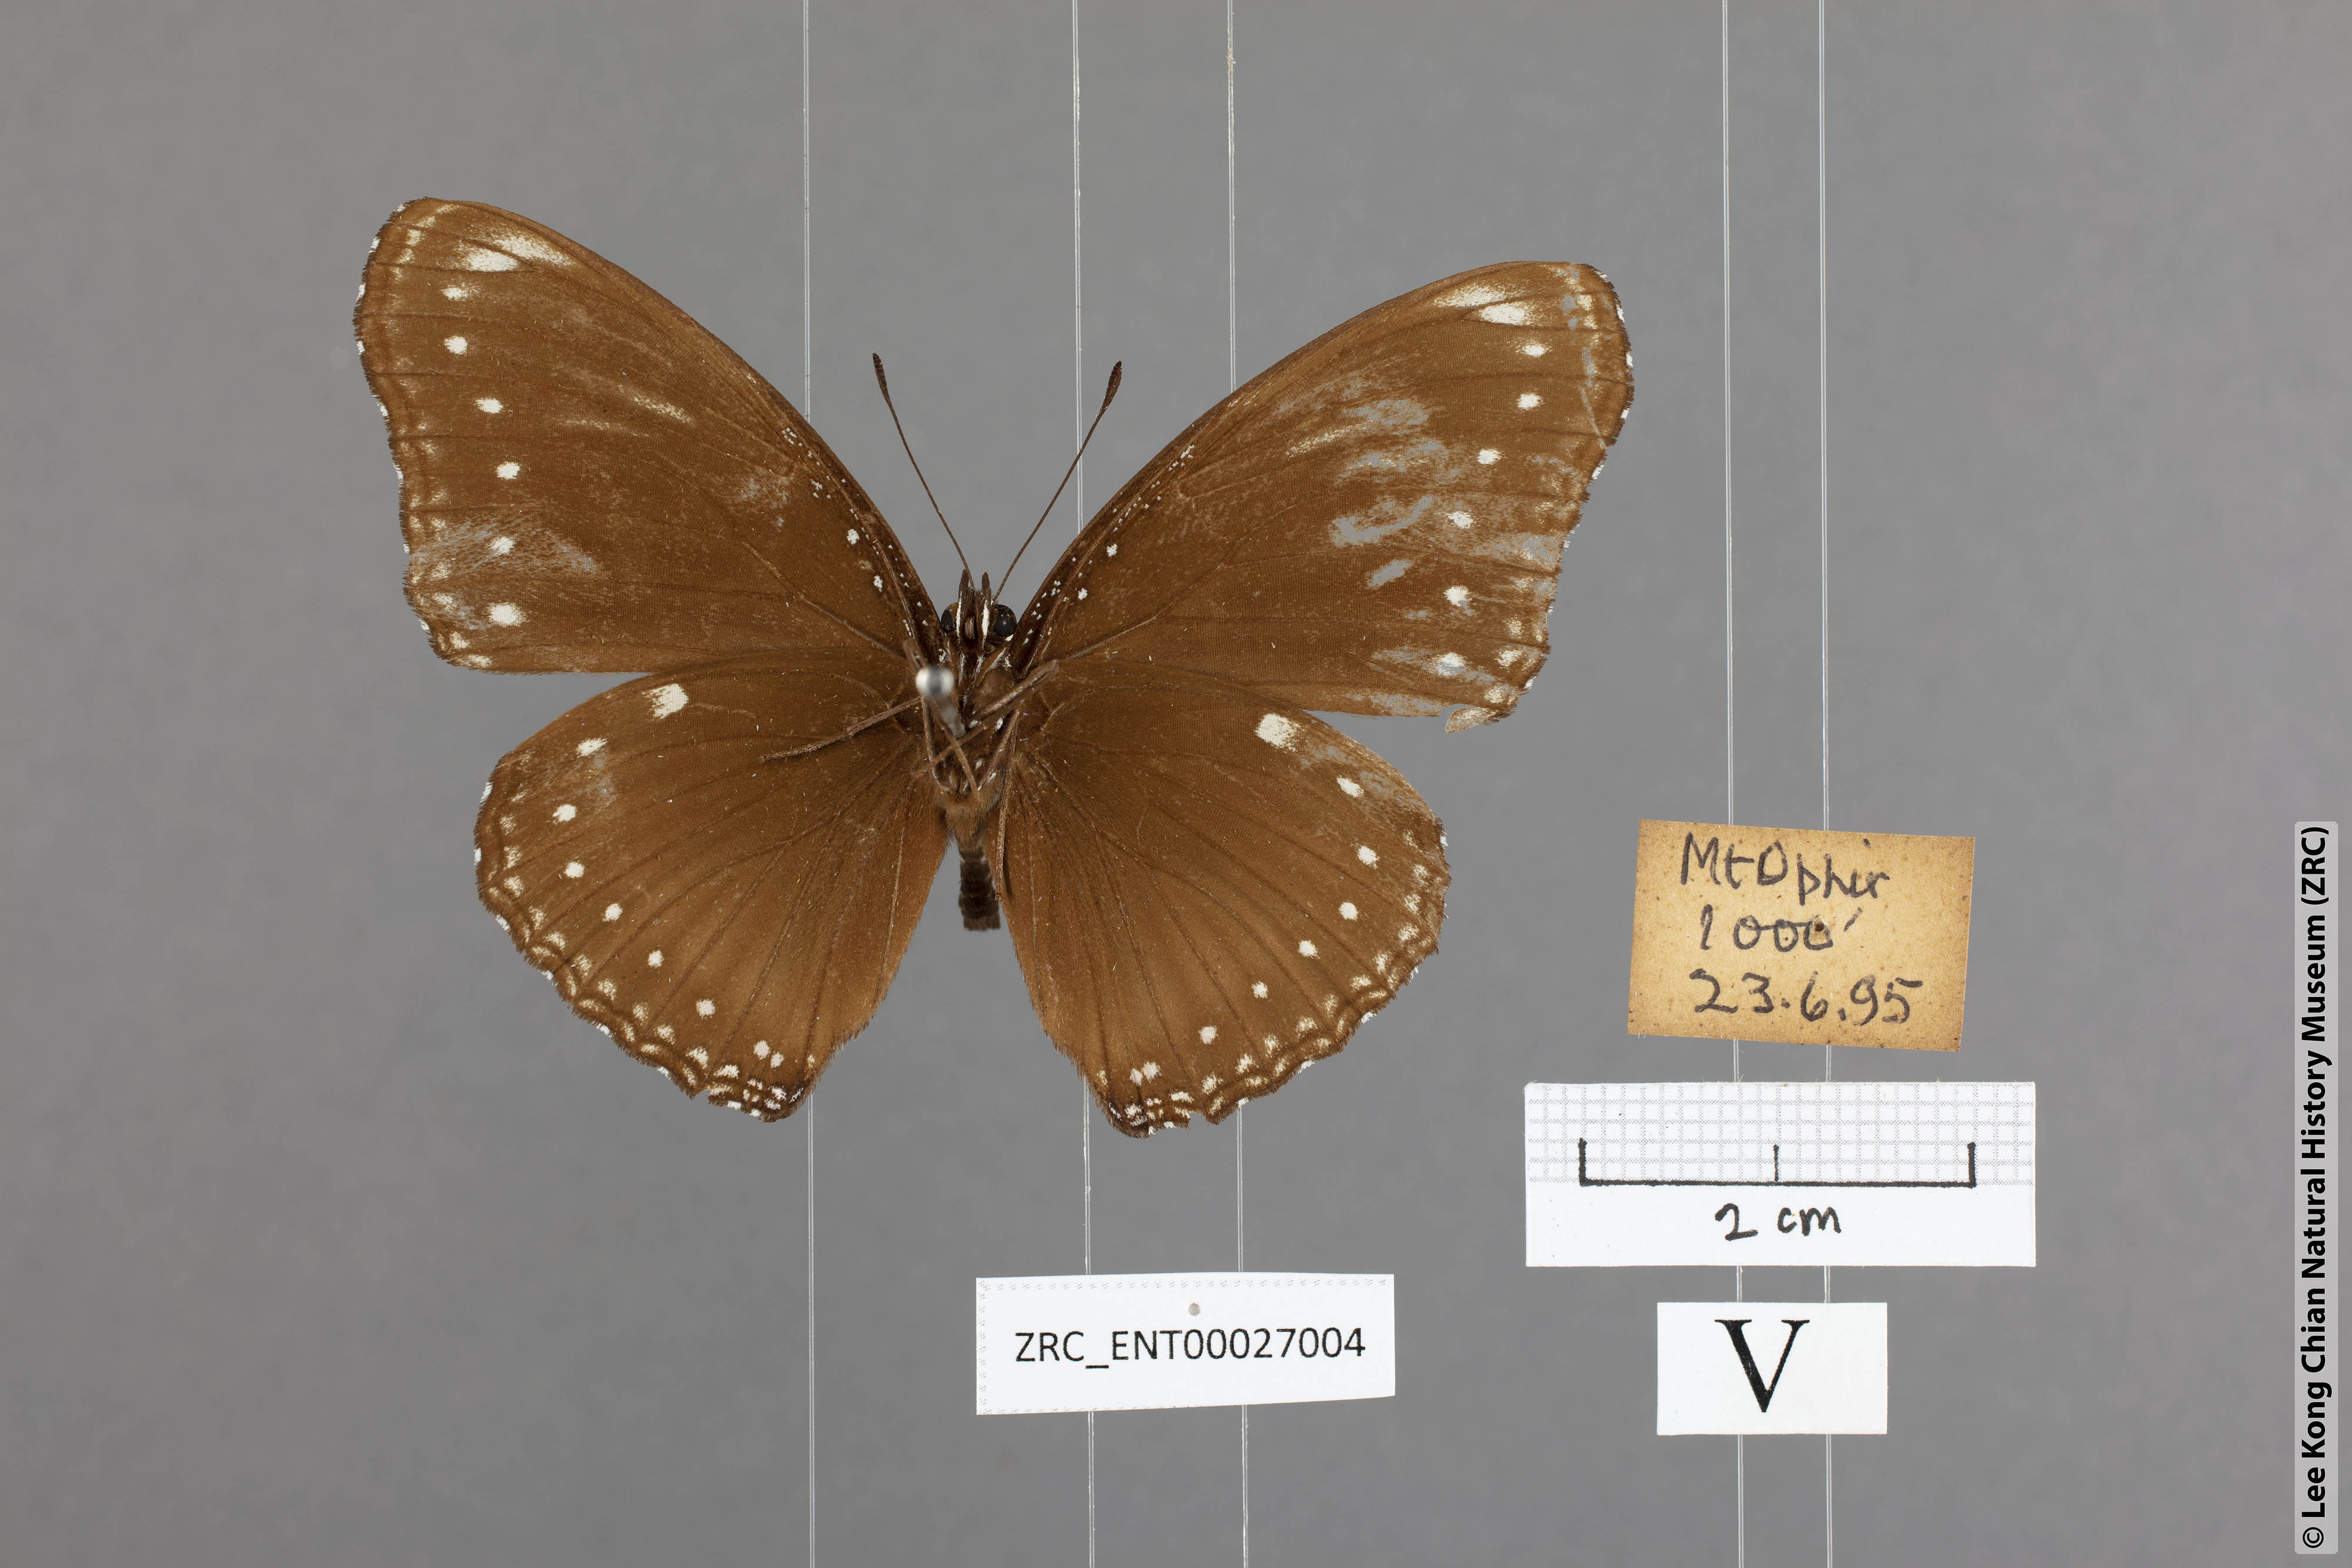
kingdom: Animalia
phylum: Arthropoda
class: Insecta
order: Lepidoptera
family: Nymphalidae
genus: Hypolimnas
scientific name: Hypolimnas anomala
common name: Malayan eggfly
